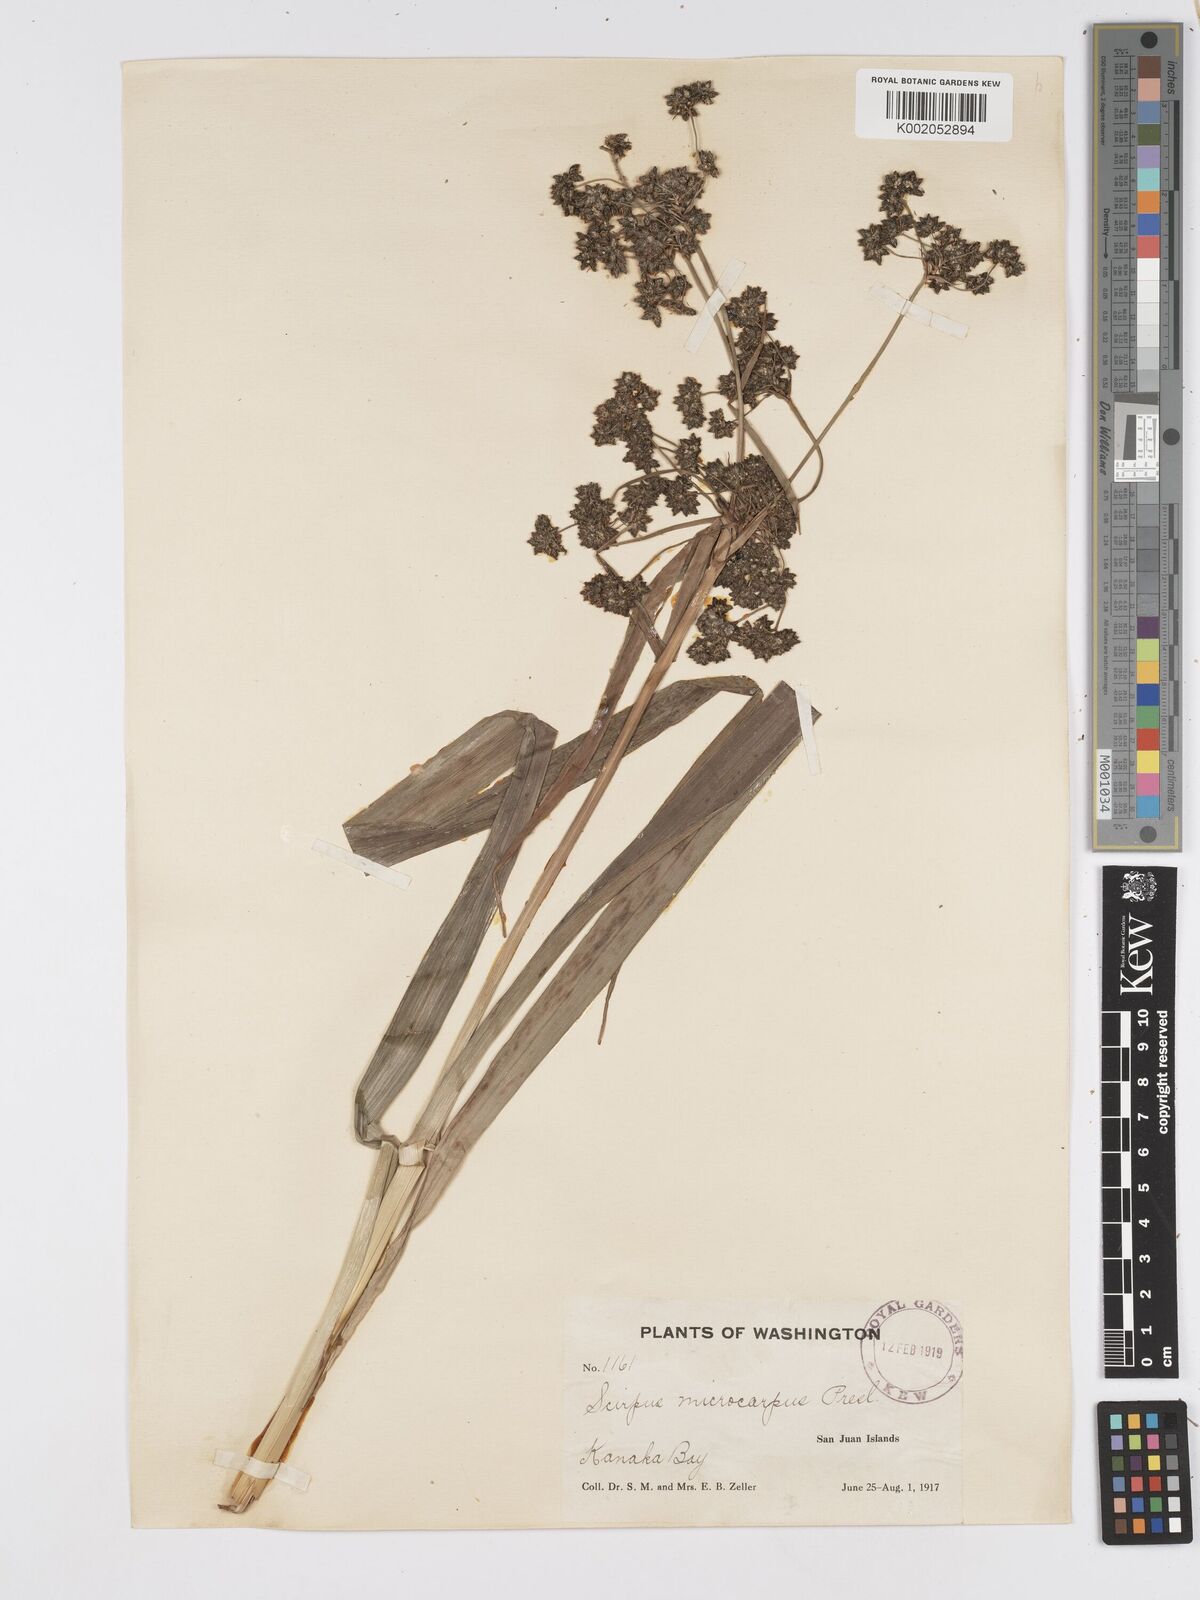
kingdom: Plantae
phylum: Tracheophyta
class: Liliopsida
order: Poales
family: Cyperaceae
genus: Scirpus
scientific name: Scirpus sylvaticus
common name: Wood club-rush
